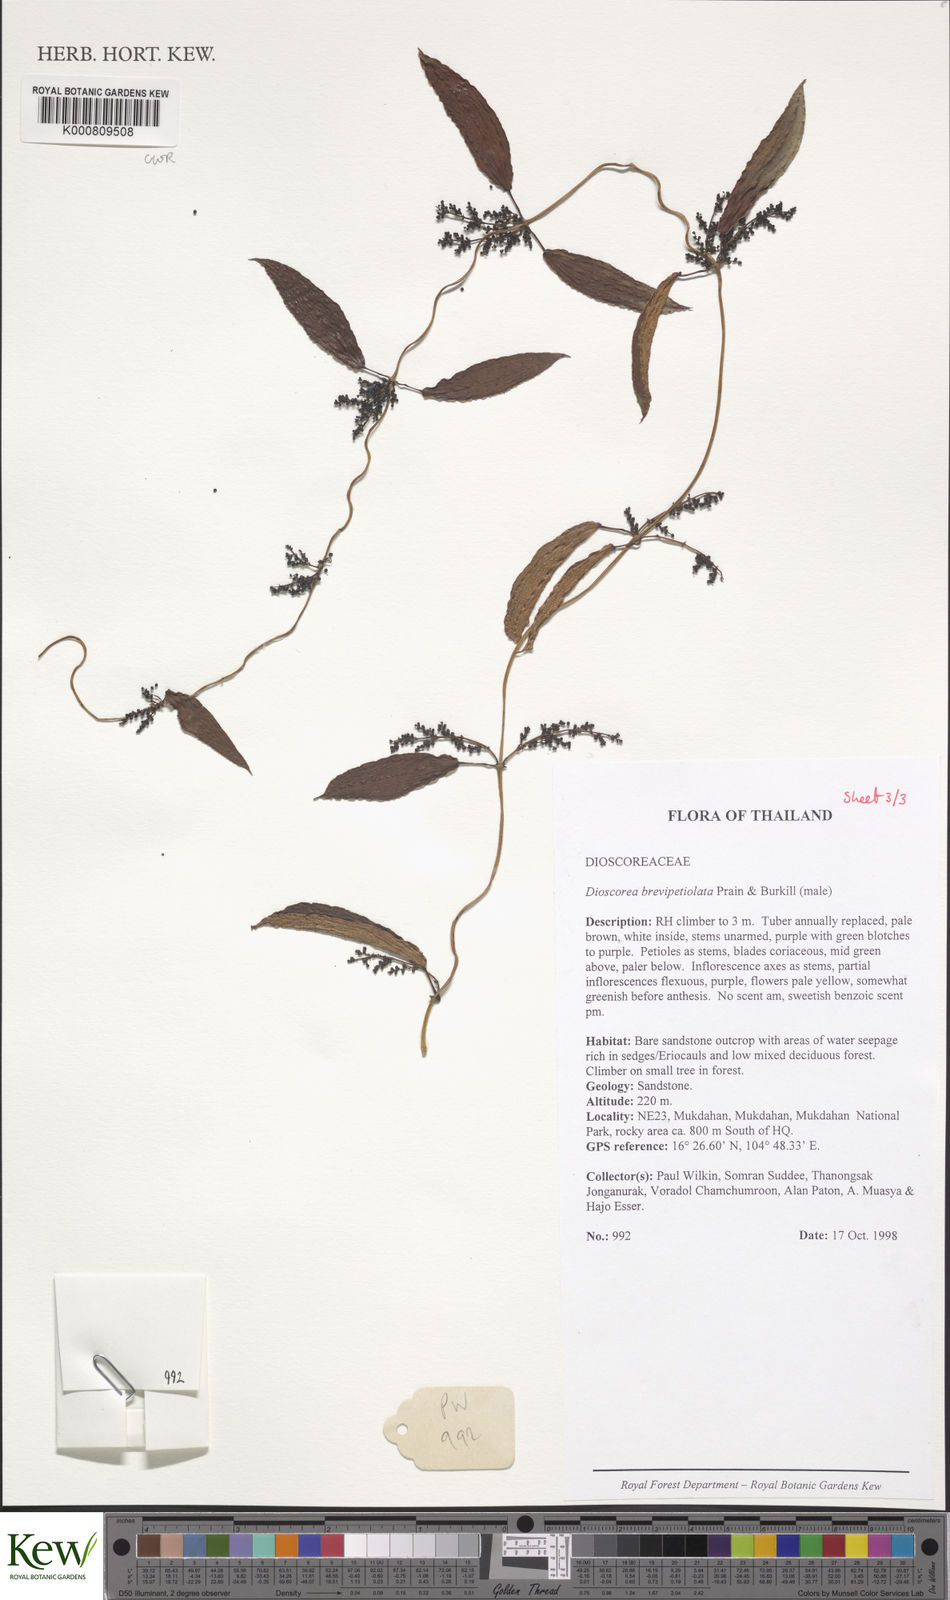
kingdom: Plantae
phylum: Tracheophyta
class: Liliopsida
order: Dioscoreales
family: Dioscoreaceae
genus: Dioscorea
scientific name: Dioscorea brevipetiolata
